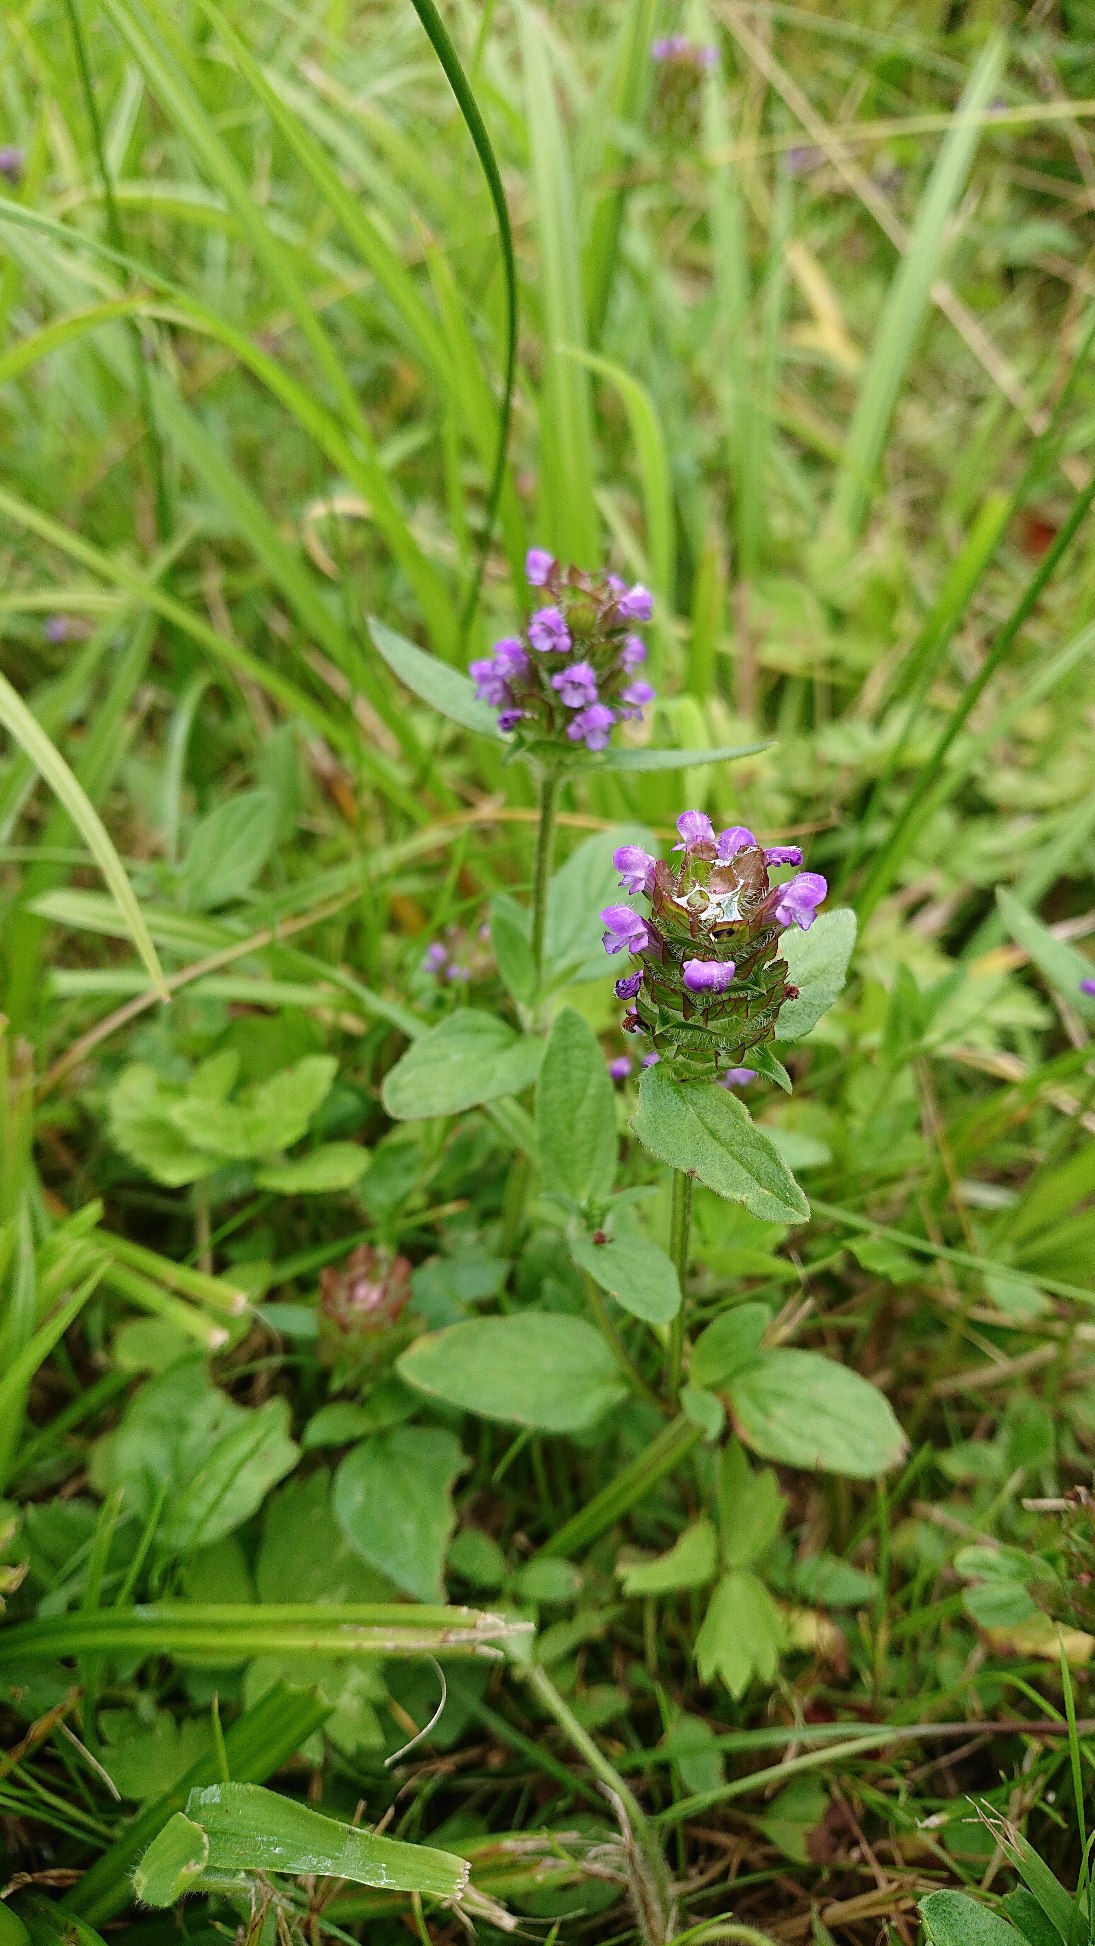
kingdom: Plantae
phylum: Tracheophyta
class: Magnoliopsida
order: Lamiales
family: Lamiaceae
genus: Prunella
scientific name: Prunella vulgaris
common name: Almindelig brunelle
